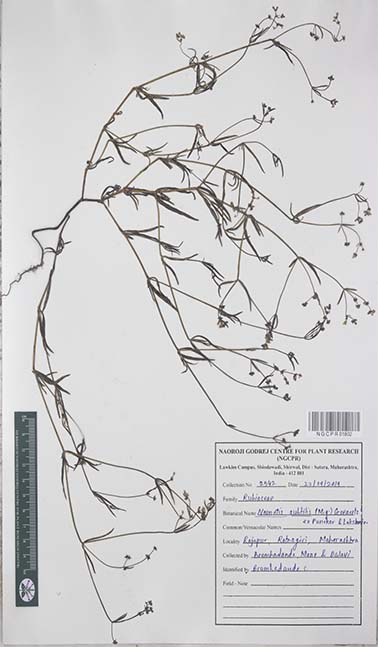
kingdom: Plantae
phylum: Tracheophyta
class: Magnoliopsida
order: Gentianales
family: Rubiaceae
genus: Neanotis
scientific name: Neanotis subtilis
